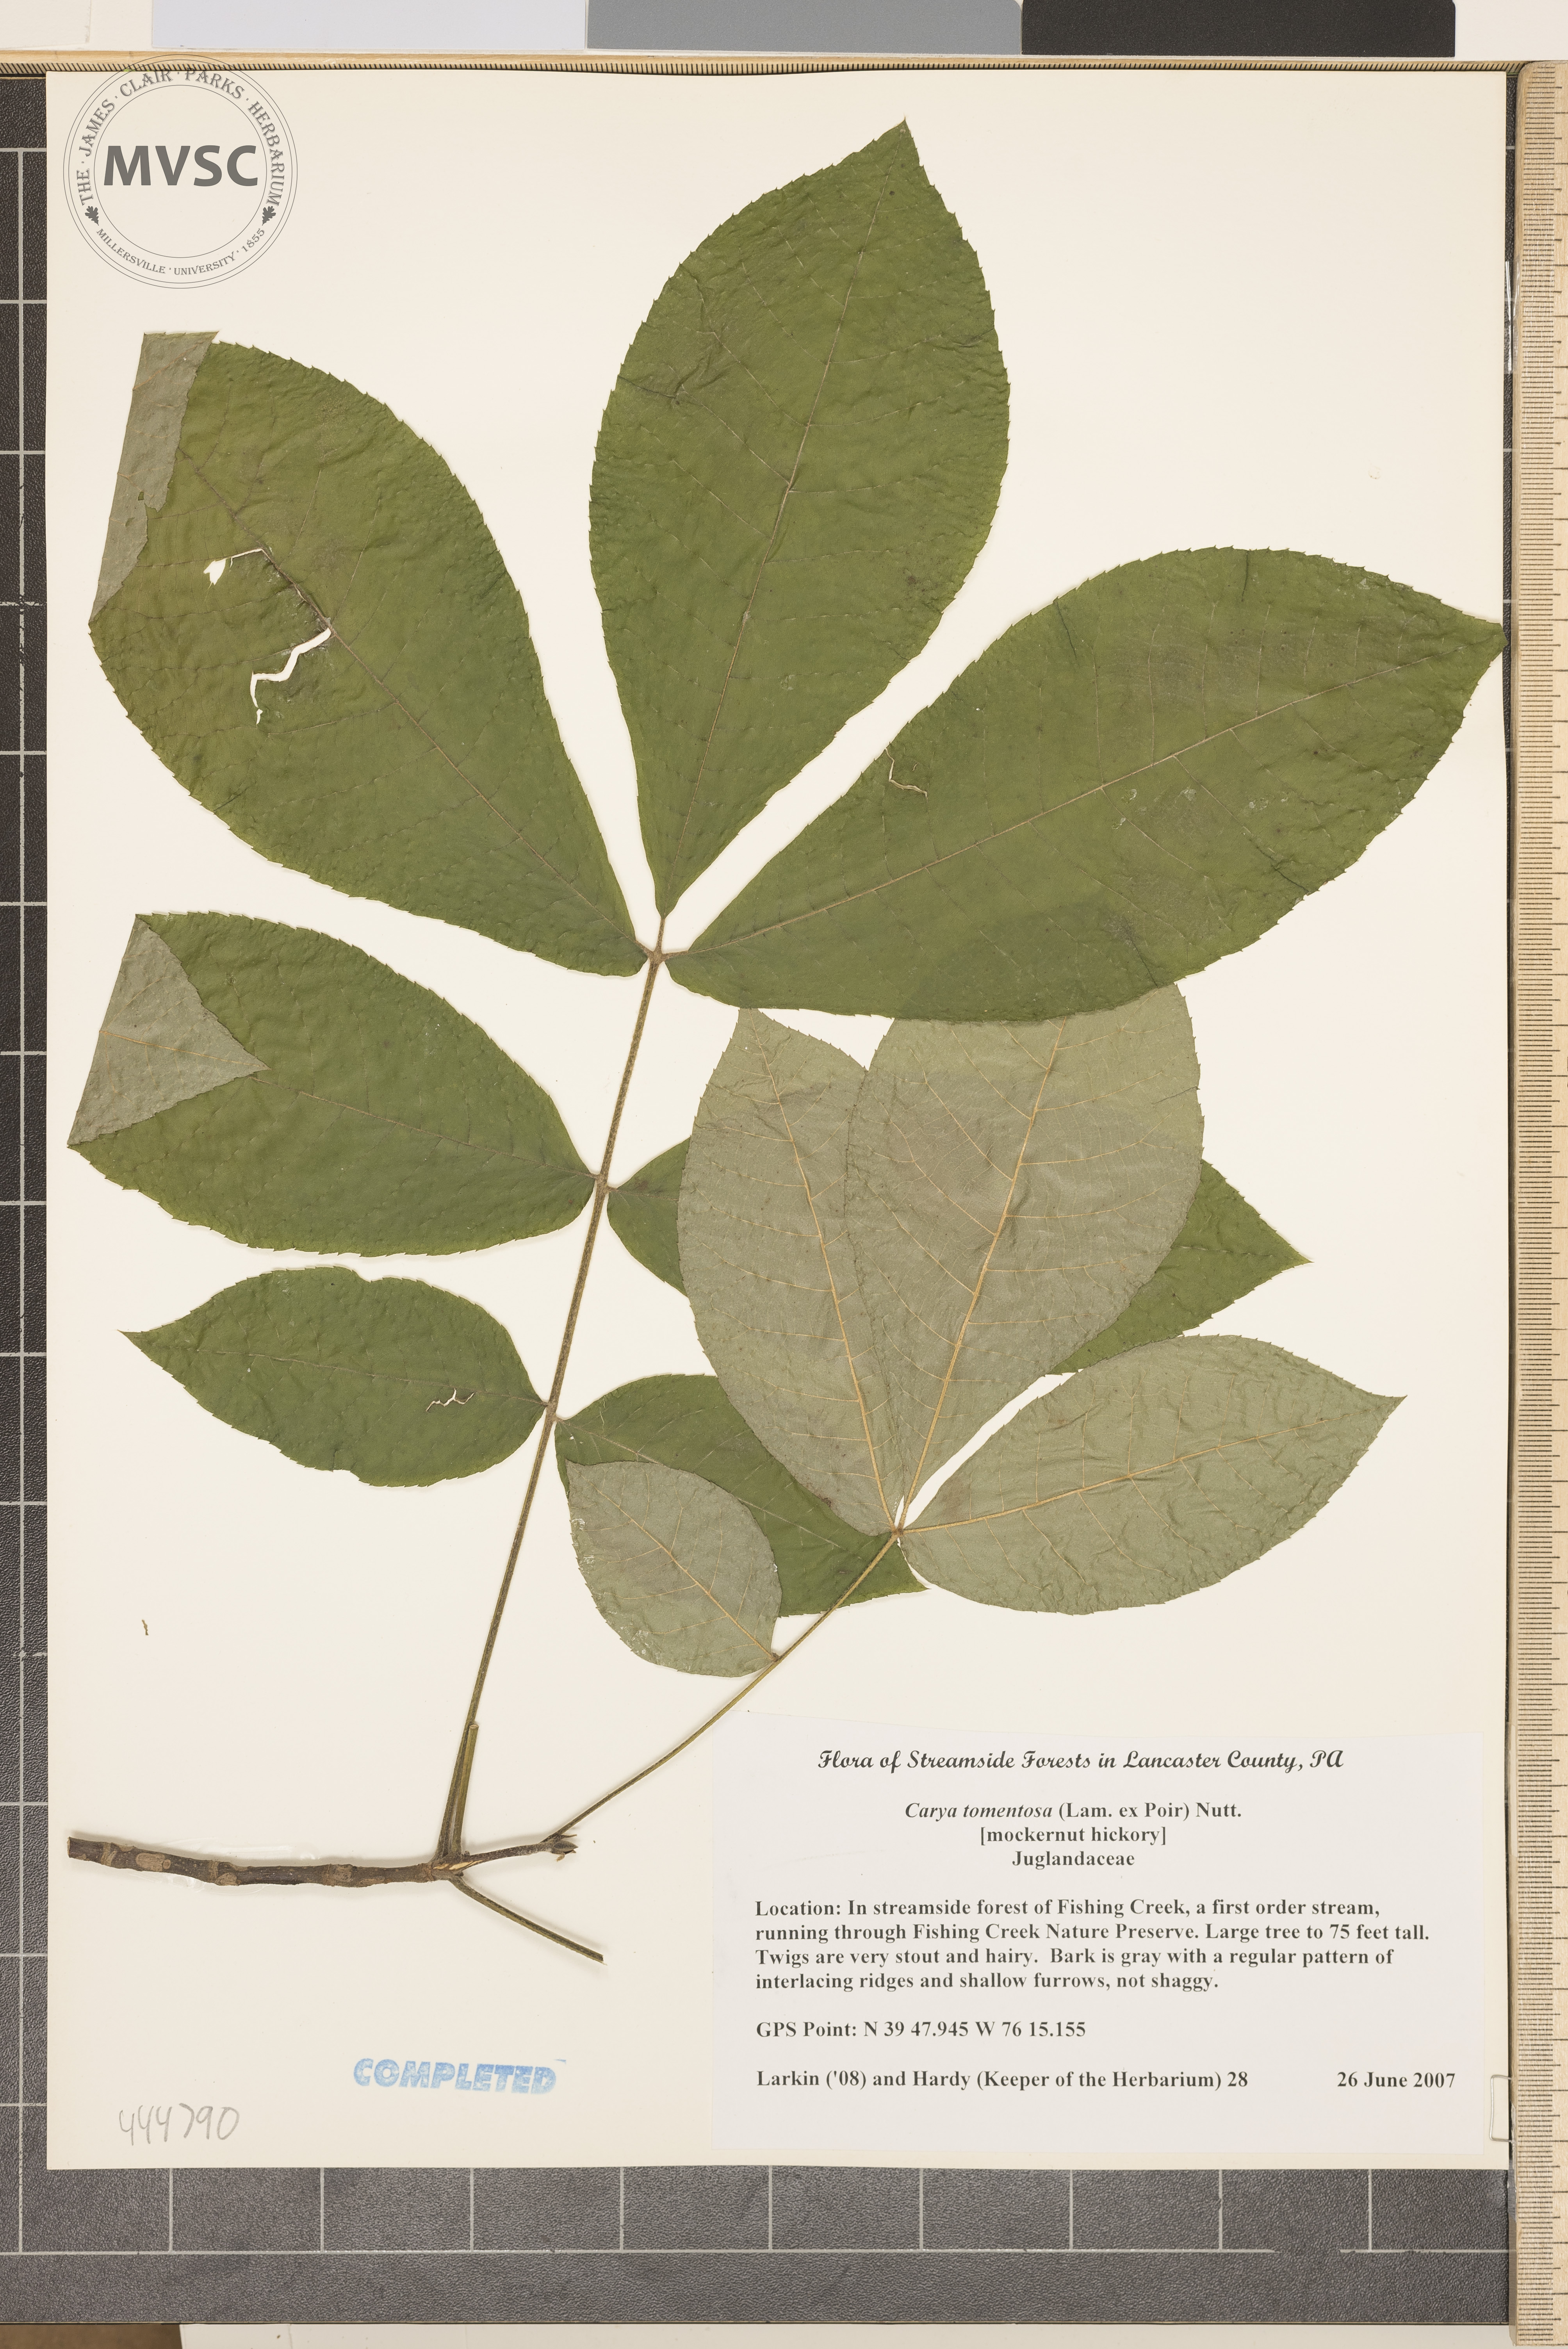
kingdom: Plantae
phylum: Tracheophyta
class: Magnoliopsida
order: Fagales
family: Juglandaceae
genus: Carya
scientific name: Carya alba
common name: Mockernut hickory
